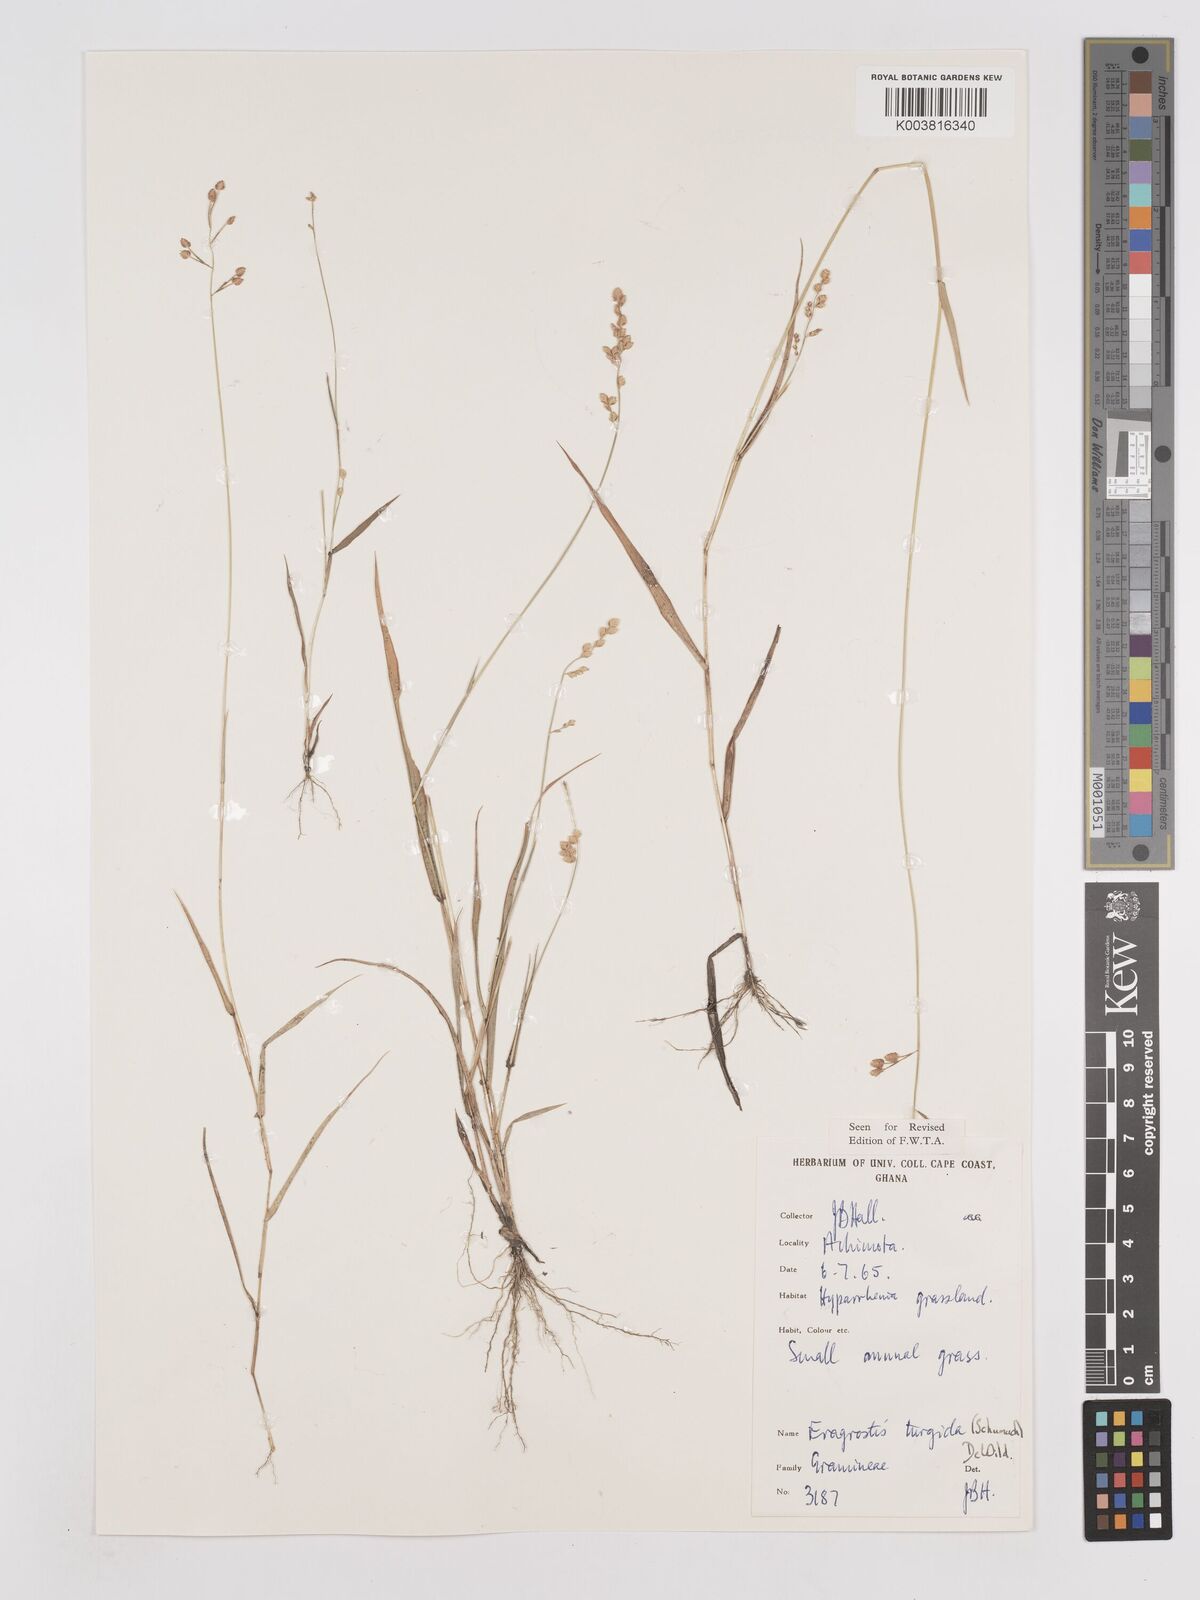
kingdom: Plantae
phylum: Tracheophyta
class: Liliopsida
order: Poales
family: Poaceae
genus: Eragrostis
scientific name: Eragrostis turgida
